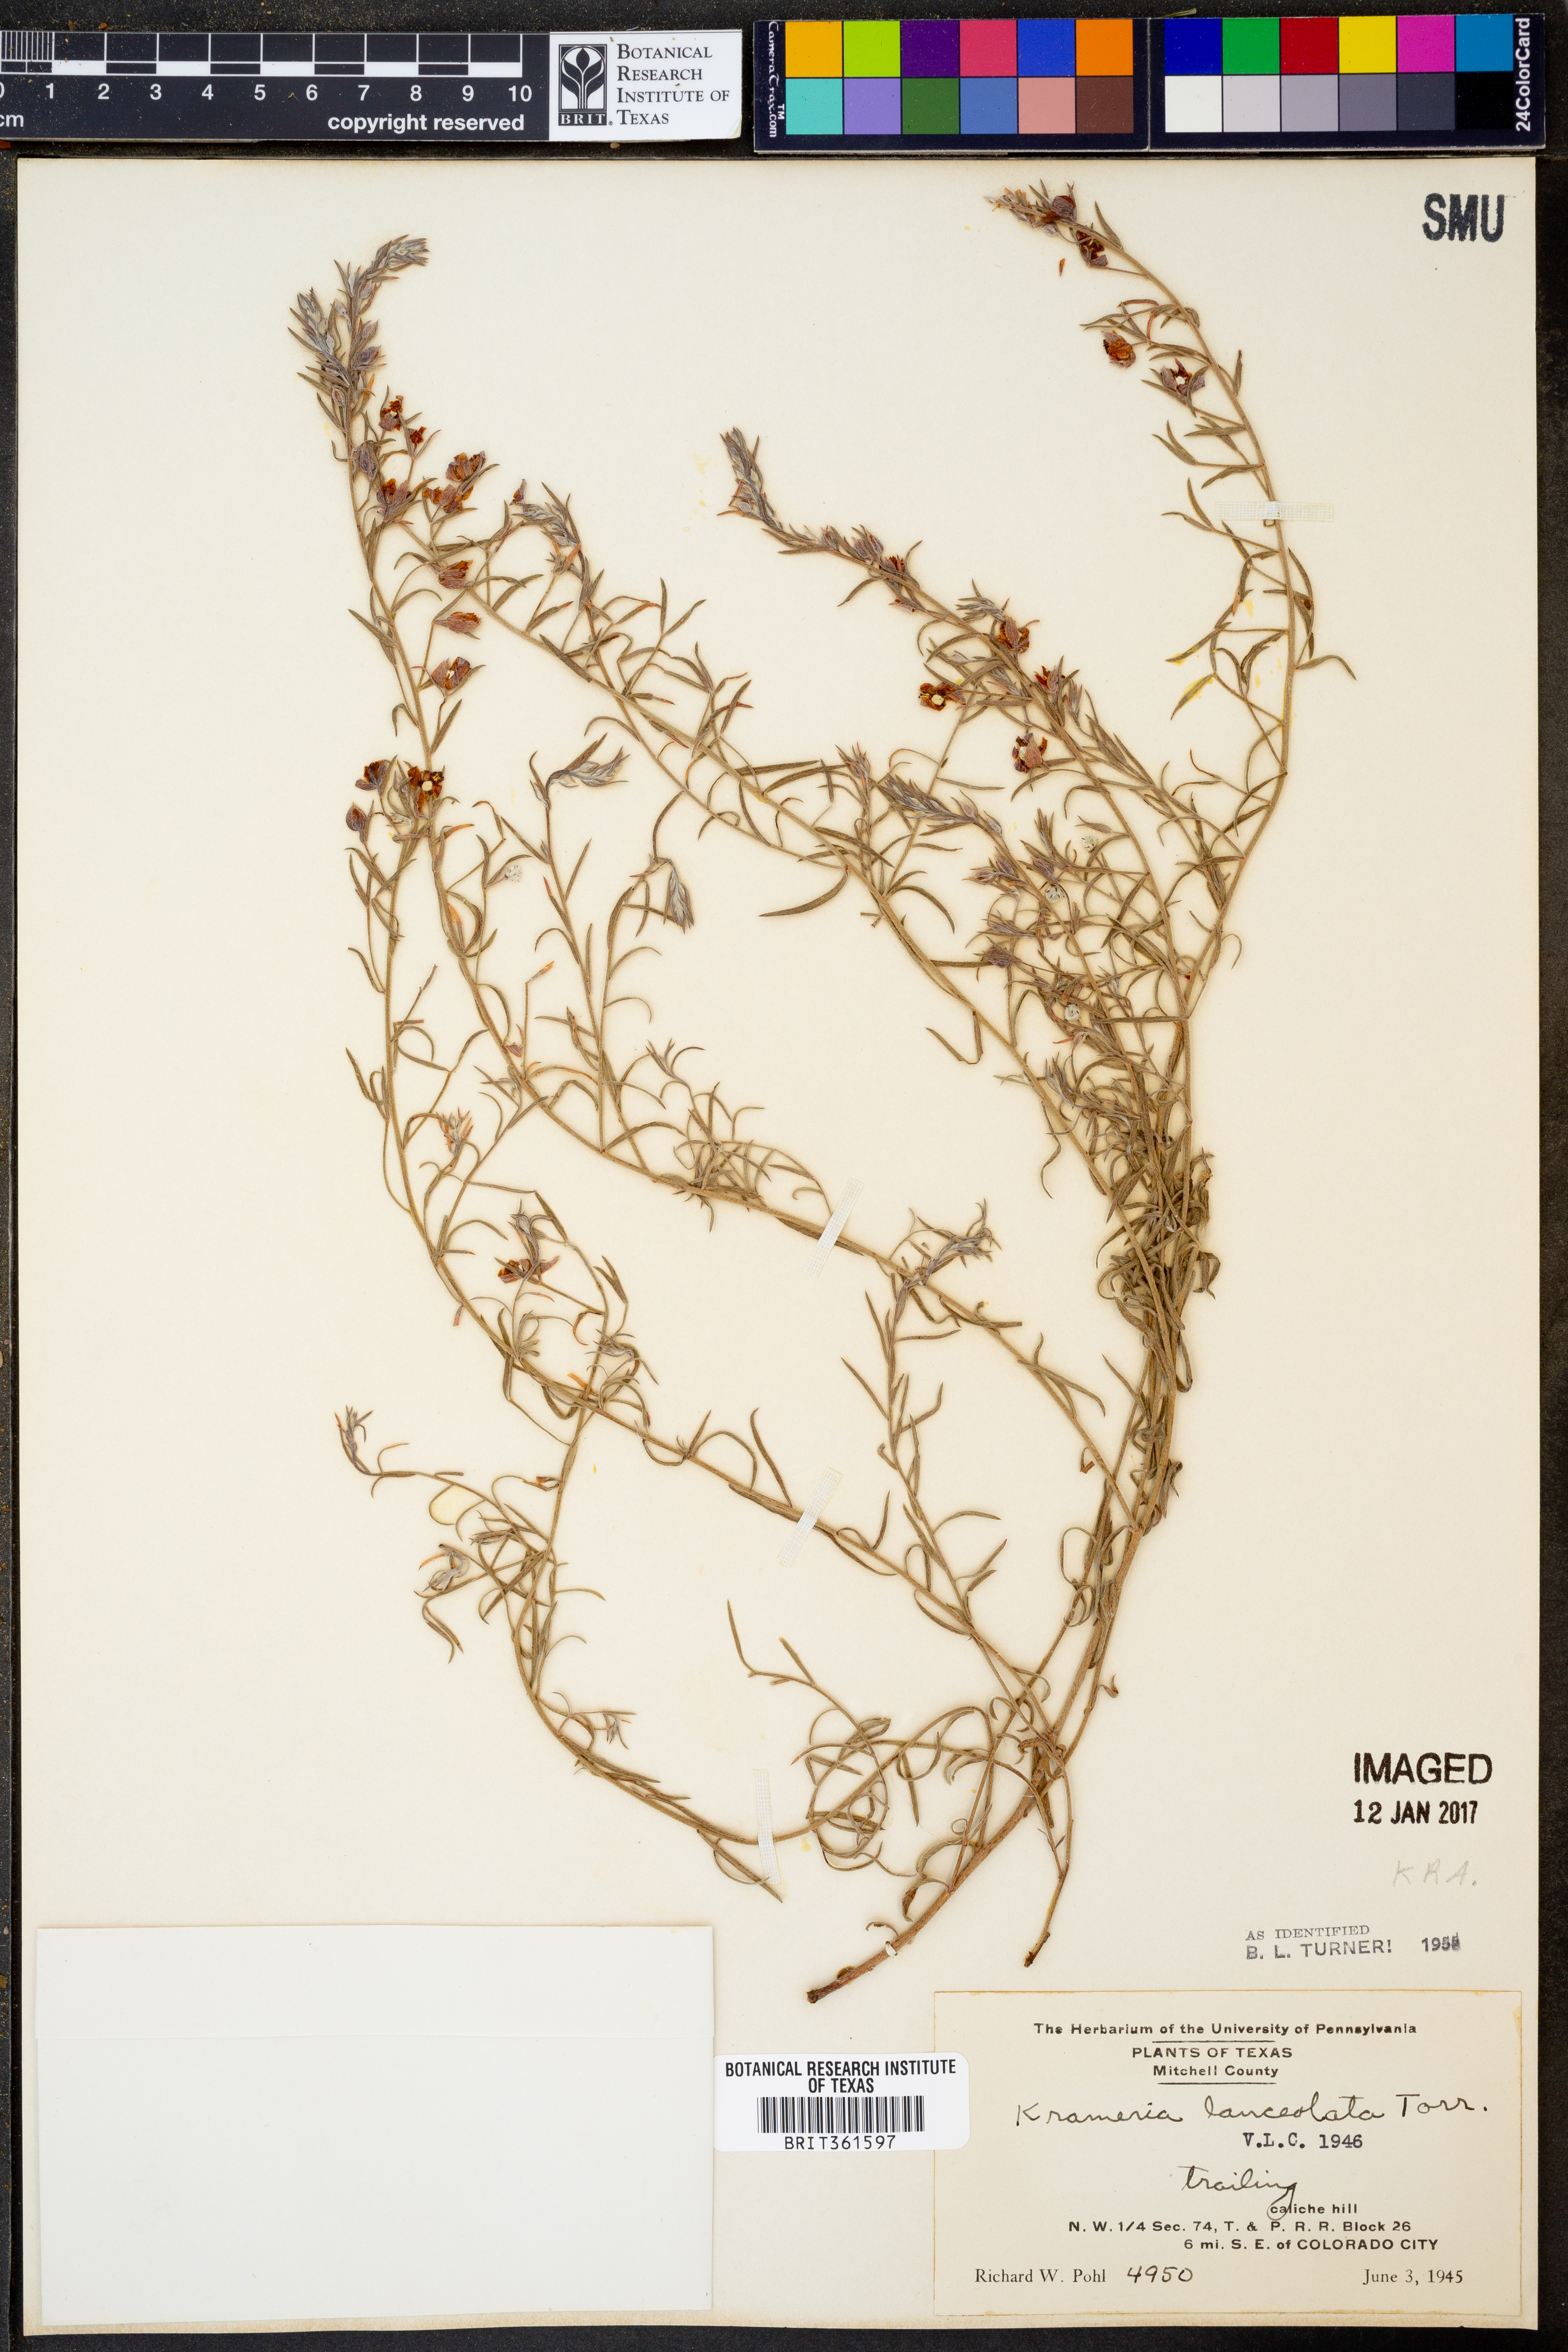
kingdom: Plantae
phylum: Tracheophyta
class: Magnoliopsida
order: Zygophyllales
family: Krameriaceae
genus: Krameria
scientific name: Krameria lanceolata
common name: Ratany
